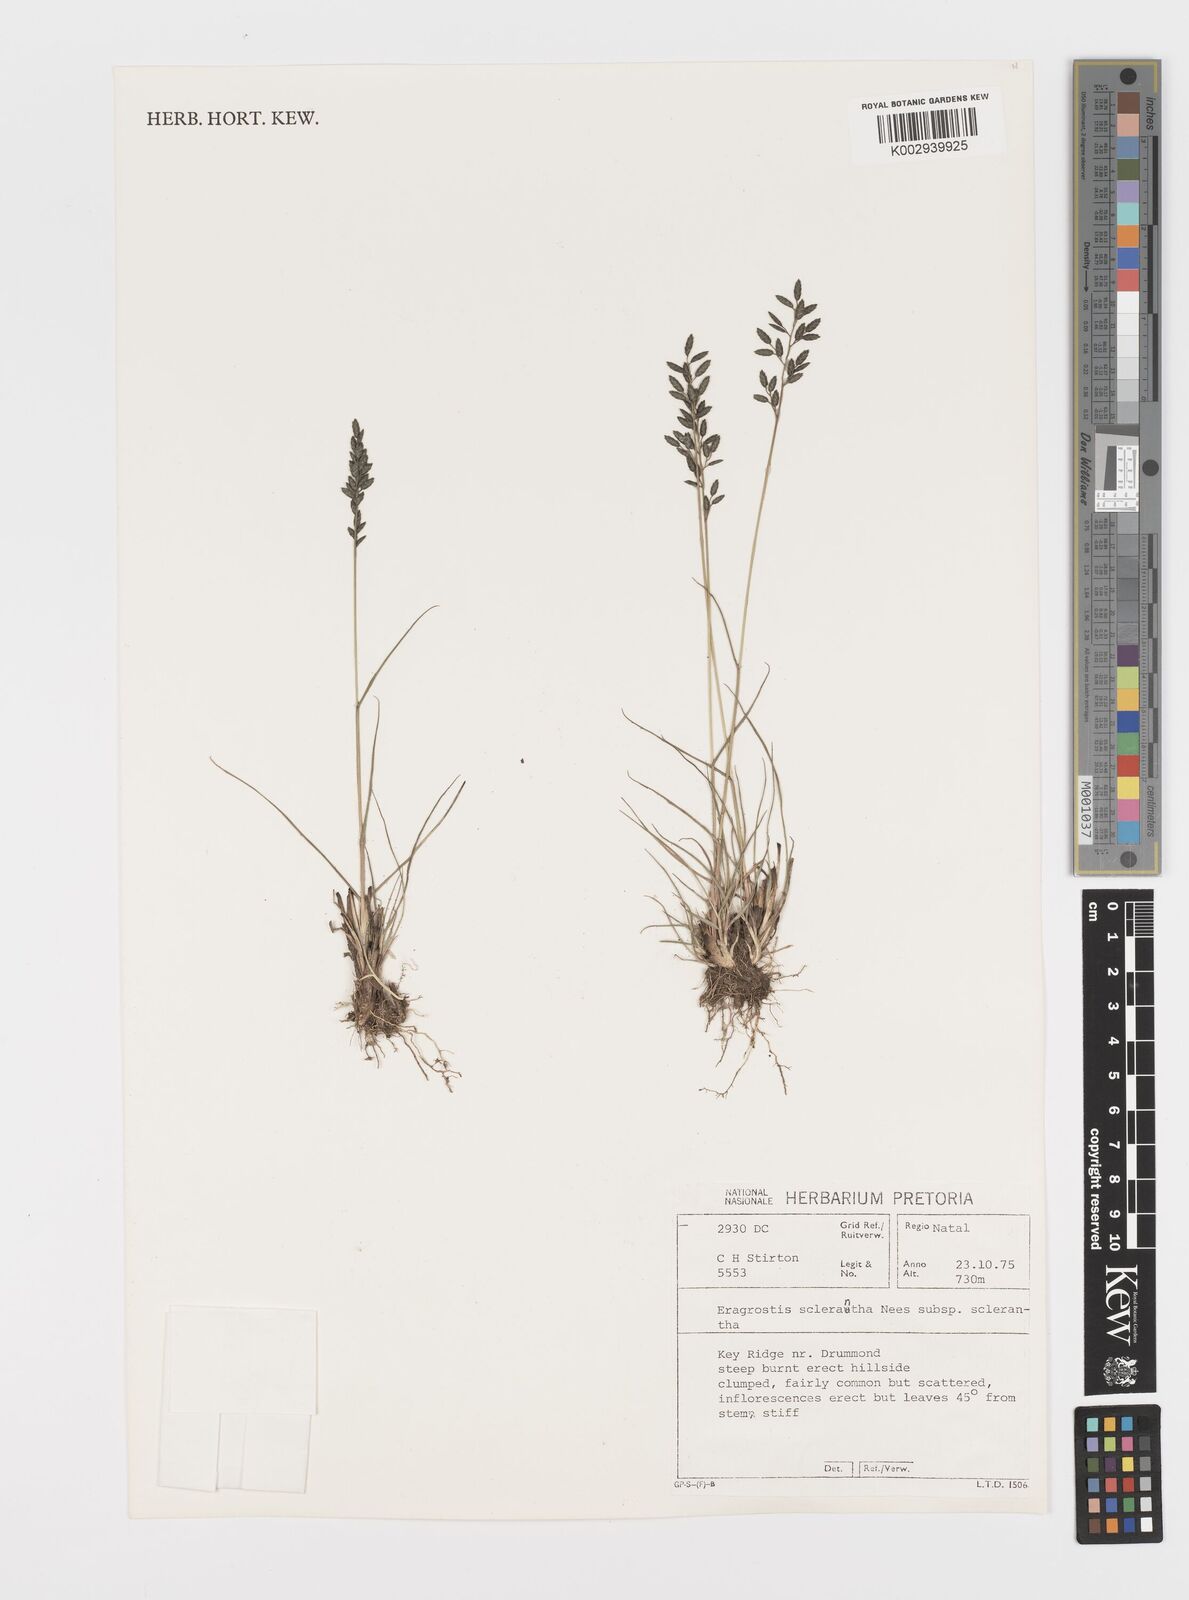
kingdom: Plantae
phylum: Tracheophyta
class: Liliopsida
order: Poales
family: Poaceae
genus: Eragrostis
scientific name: Eragrostis sclerantha
